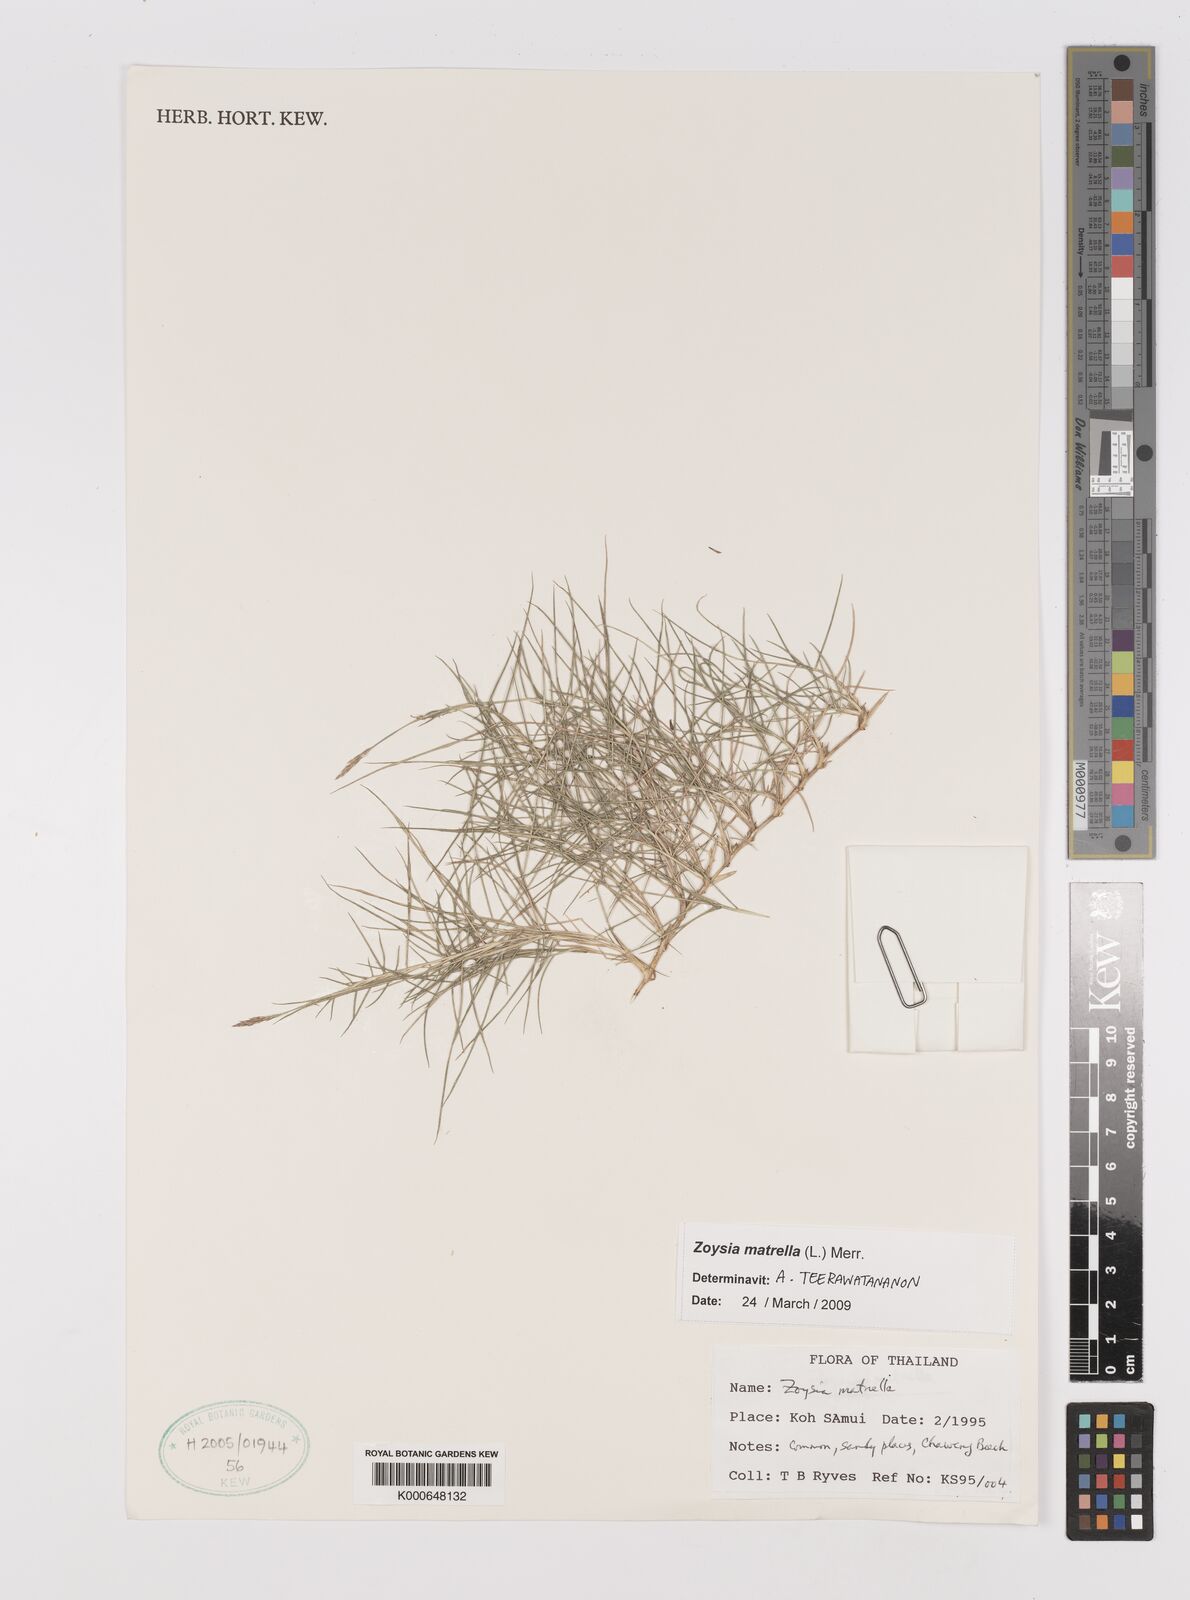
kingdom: Plantae
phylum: Tracheophyta
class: Liliopsida
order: Poales
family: Poaceae
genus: Zoysia
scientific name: Zoysia matrella
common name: Manila grass
